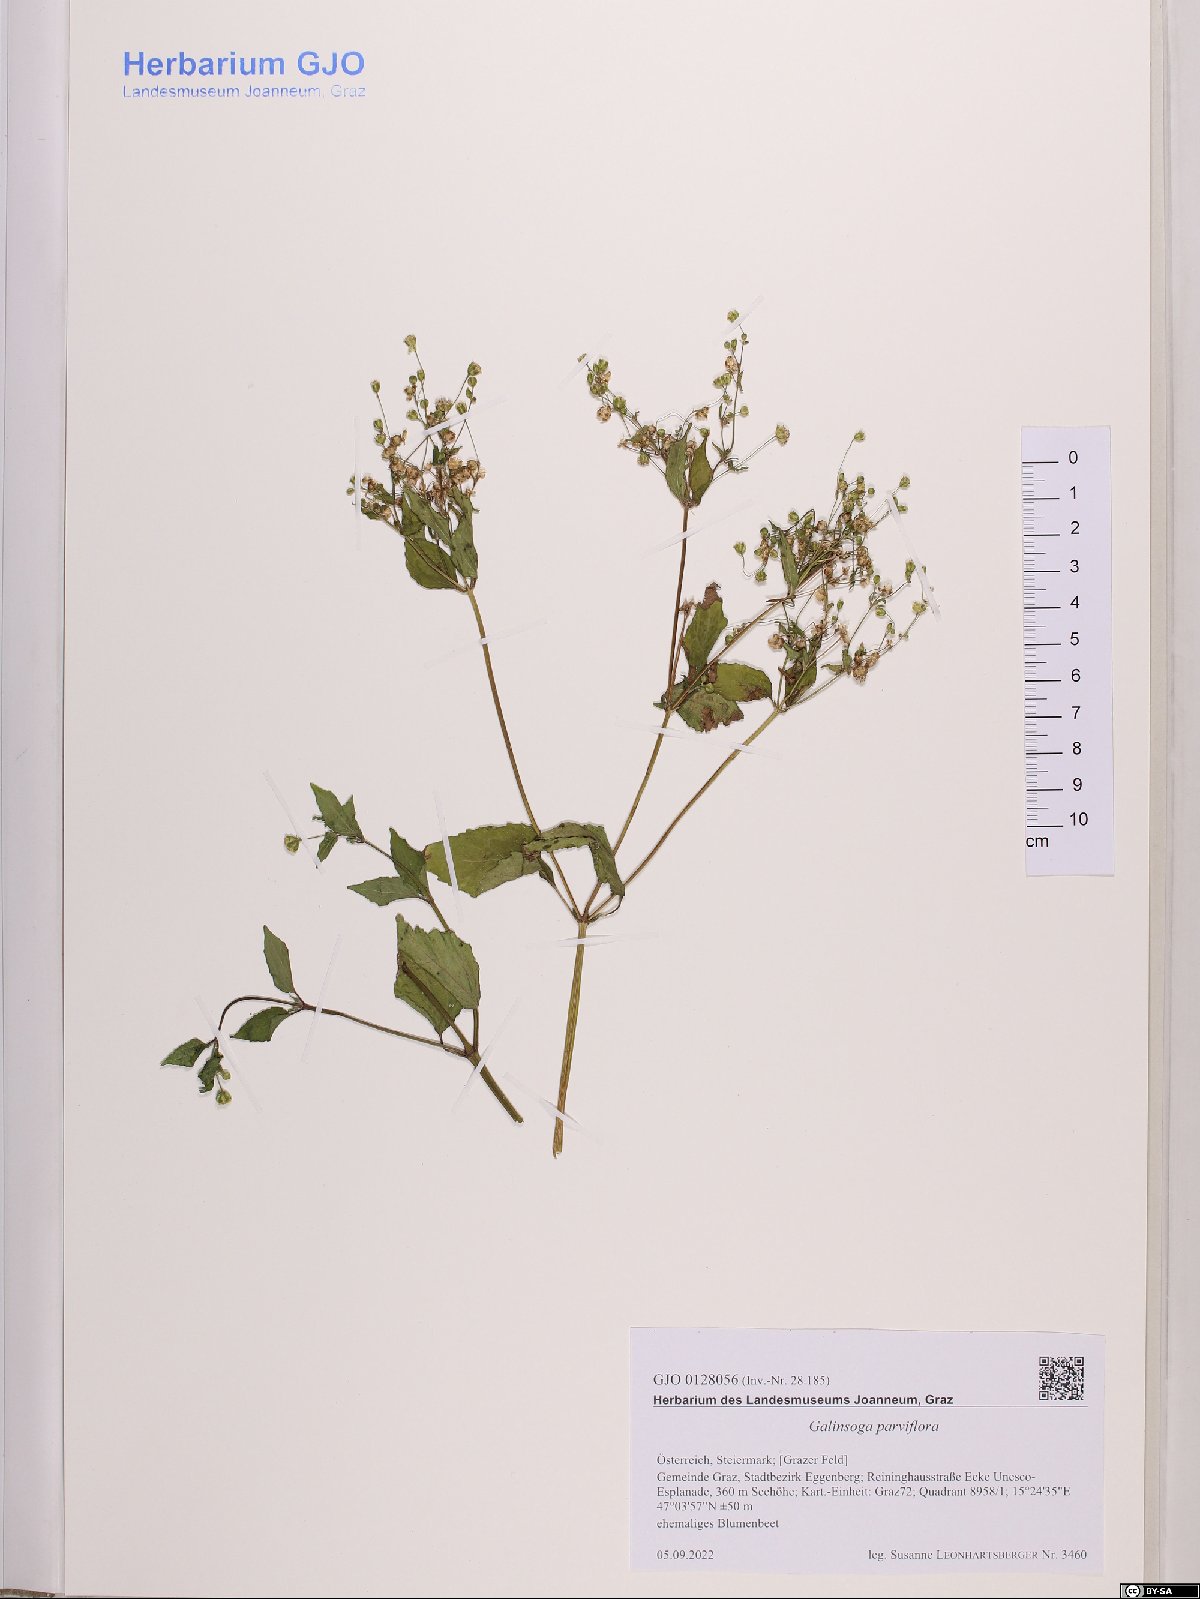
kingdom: Plantae
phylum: Tracheophyta
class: Magnoliopsida
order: Asterales
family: Asteraceae
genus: Galinsoga
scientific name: Galinsoga parviflora
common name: Gallant soldier
